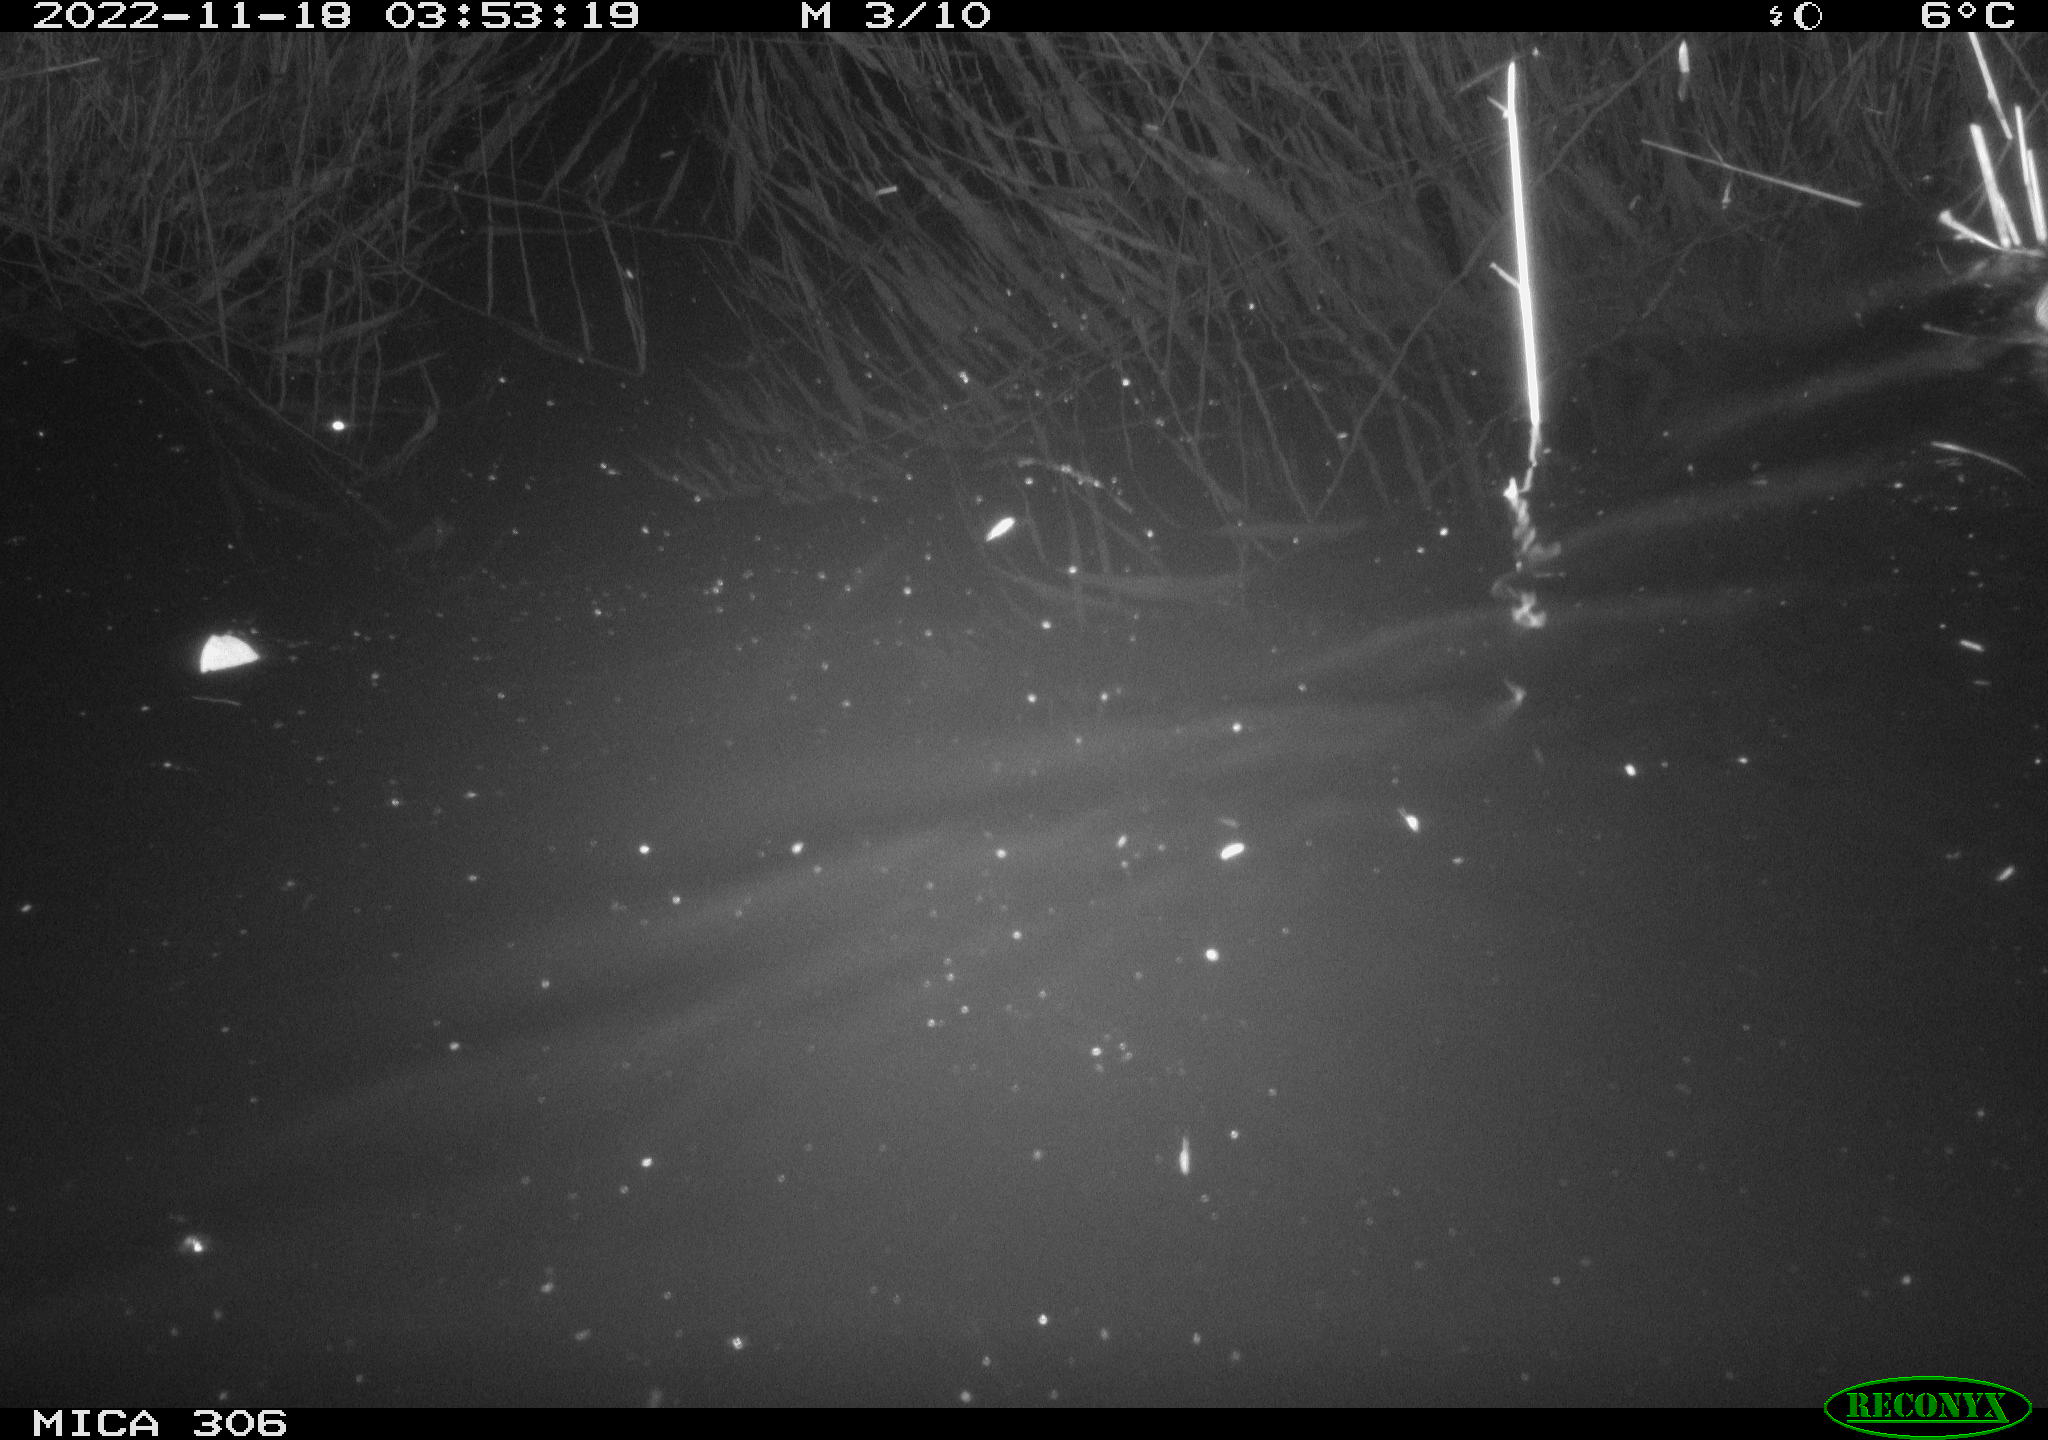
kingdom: Animalia
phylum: Chordata
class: Mammalia
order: Rodentia
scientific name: Rodentia
